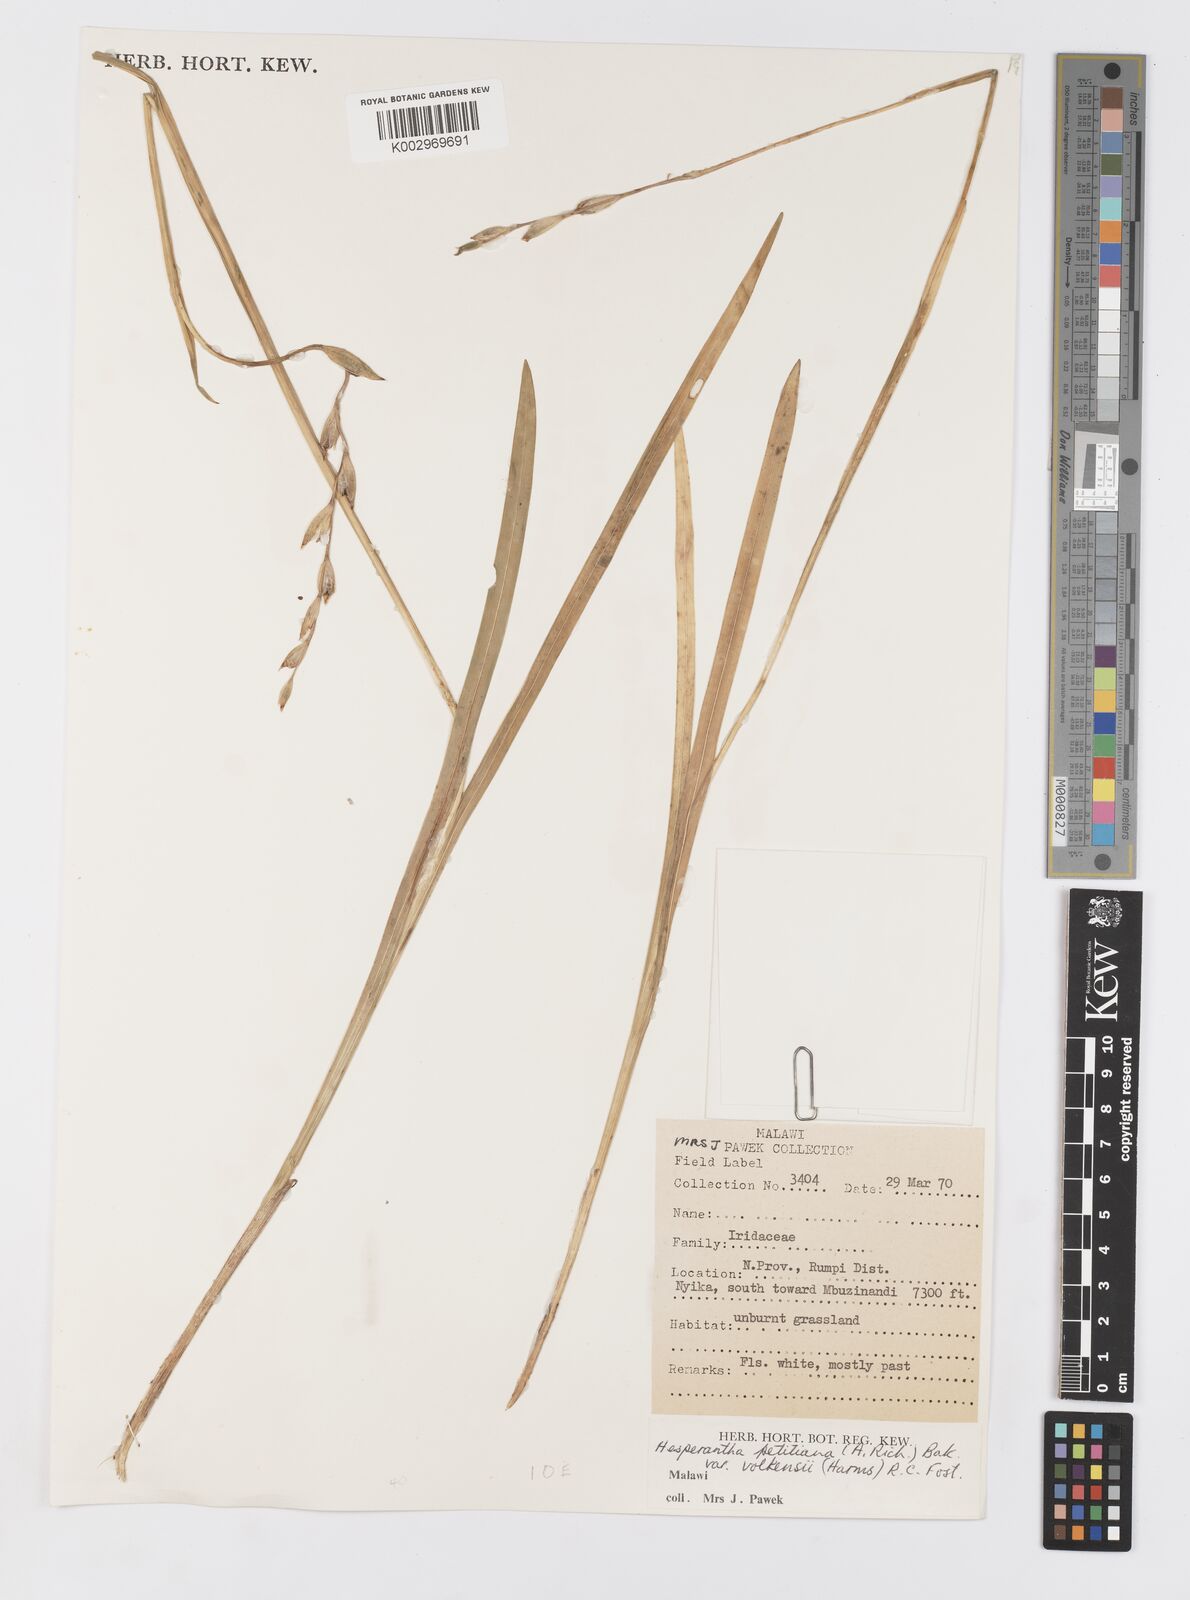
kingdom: Plantae
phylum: Tracheophyta
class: Liliopsida
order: Asparagales
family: Iridaceae
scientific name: Iridaceae
